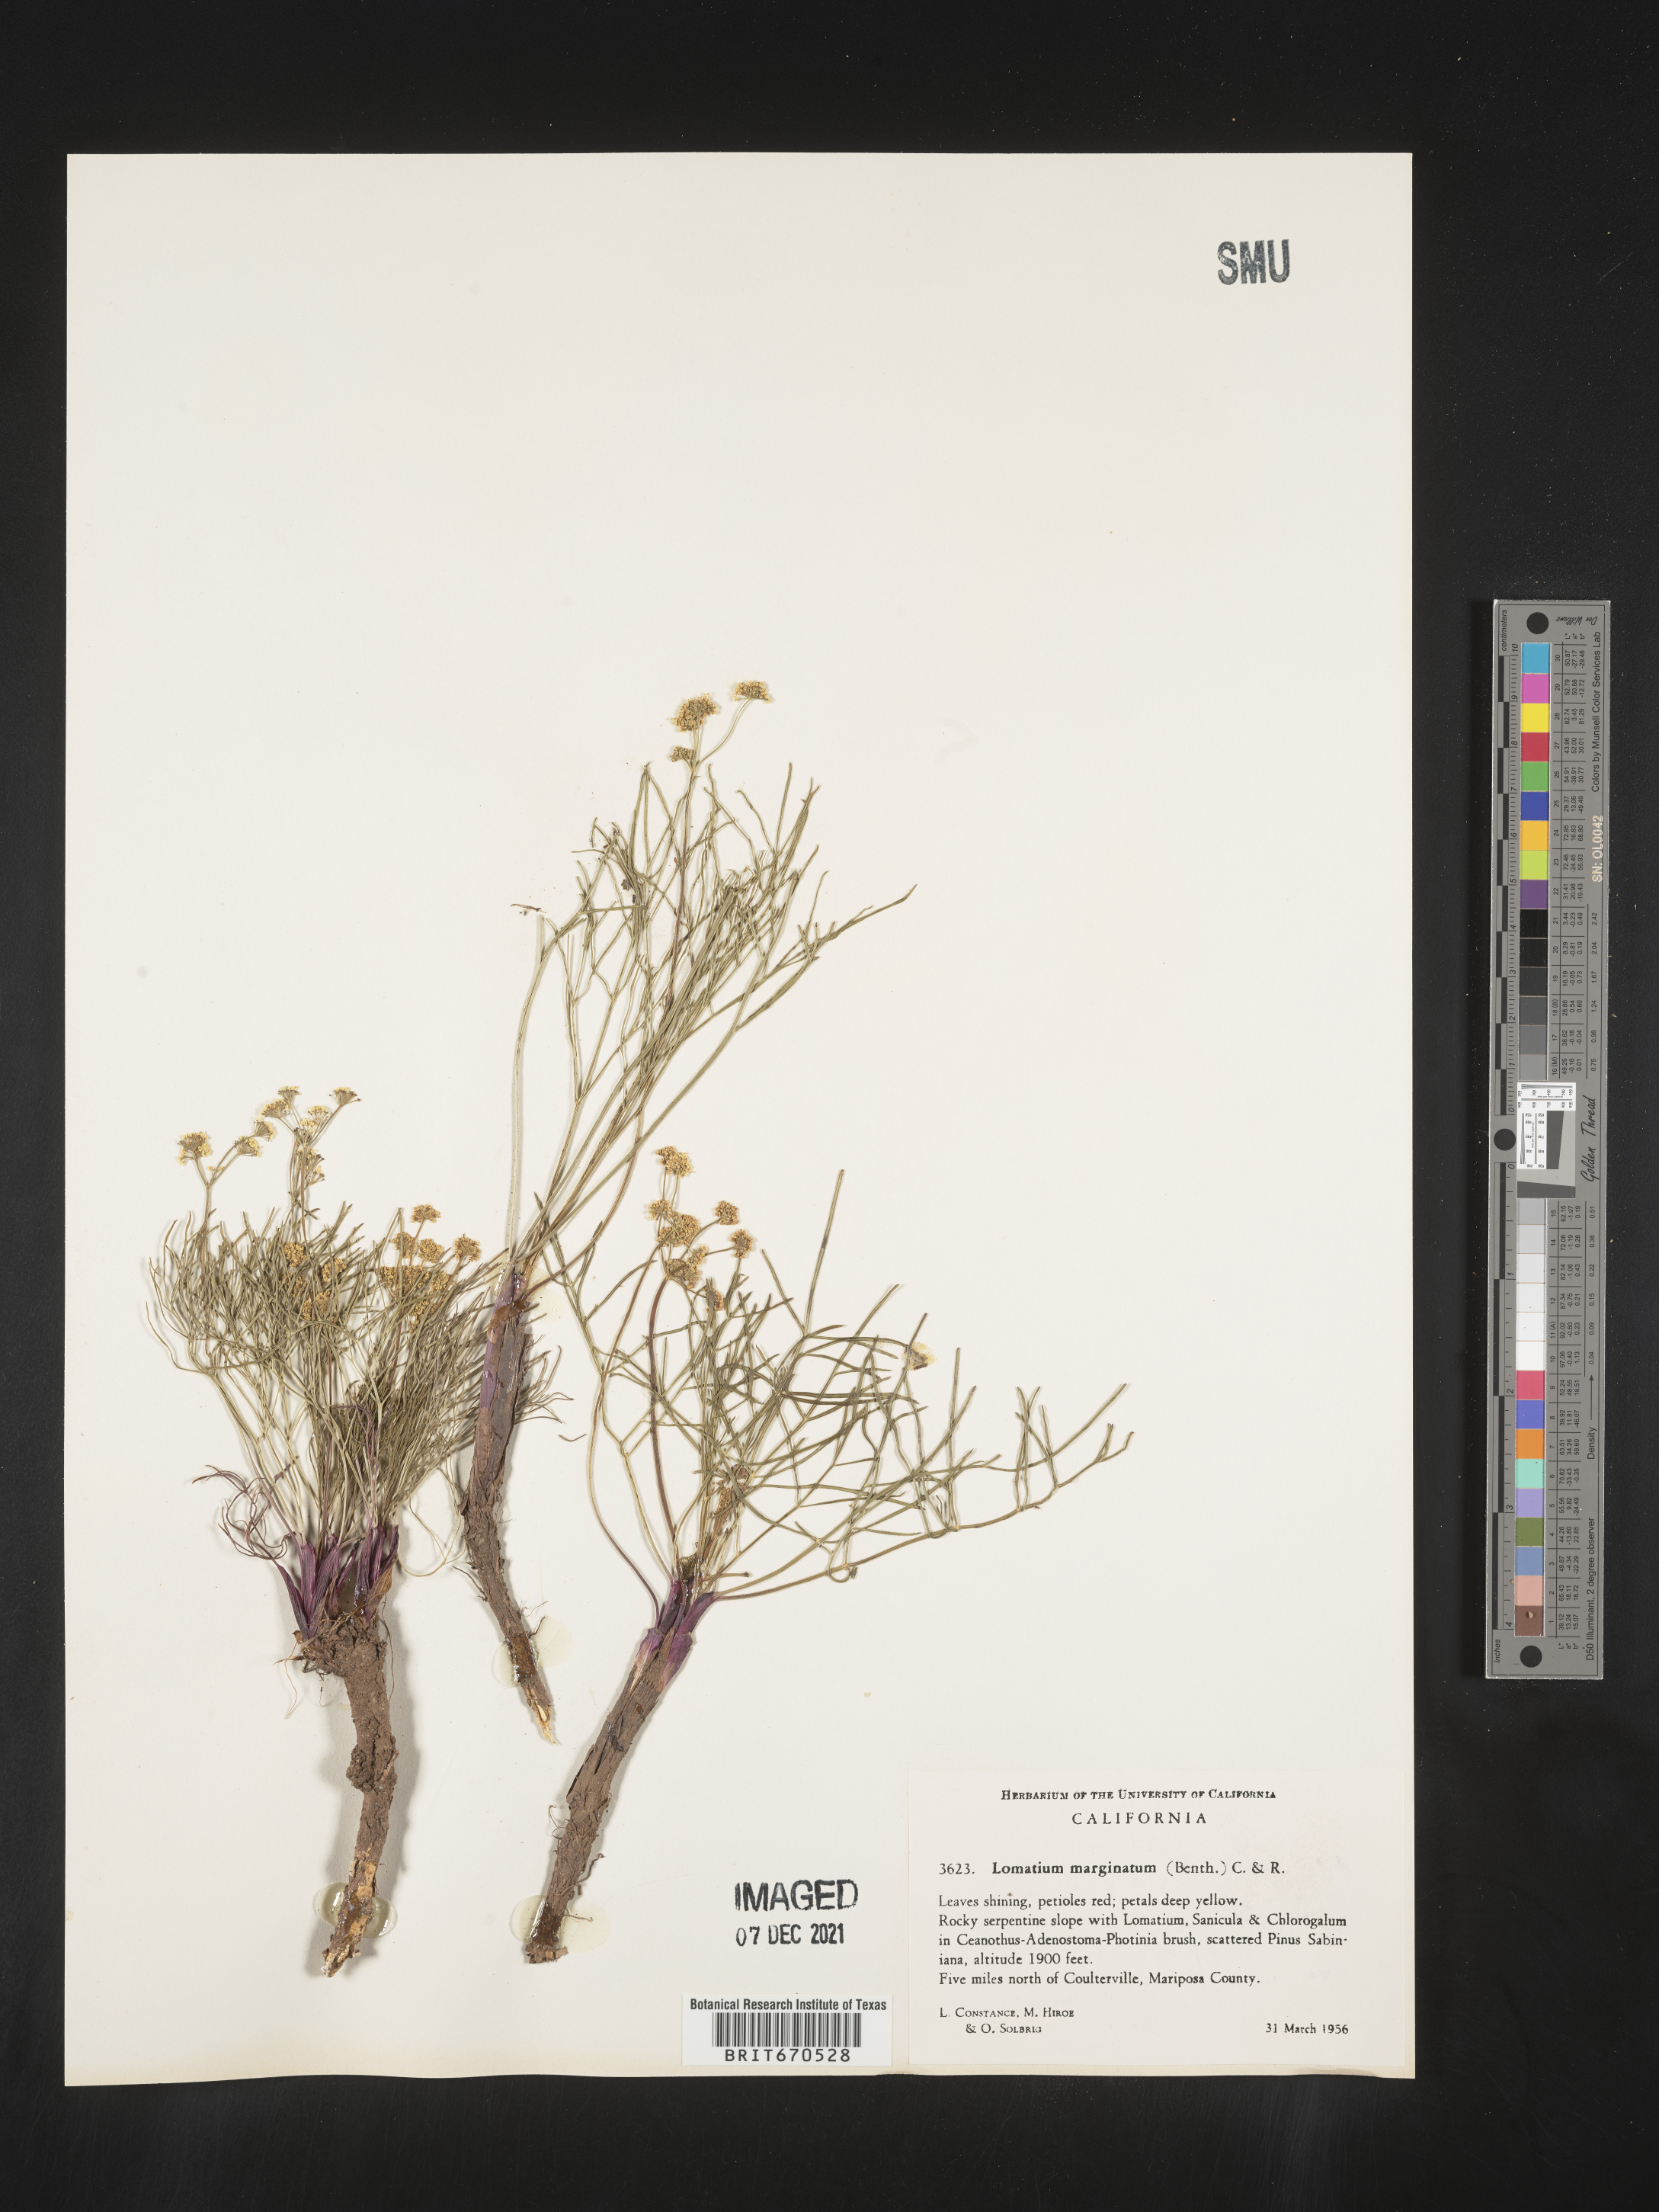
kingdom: Plantae
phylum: Tracheophyta
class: Magnoliopsida
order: Apiales
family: Apiaceae
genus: Lomatium
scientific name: Lomatium marginatum
